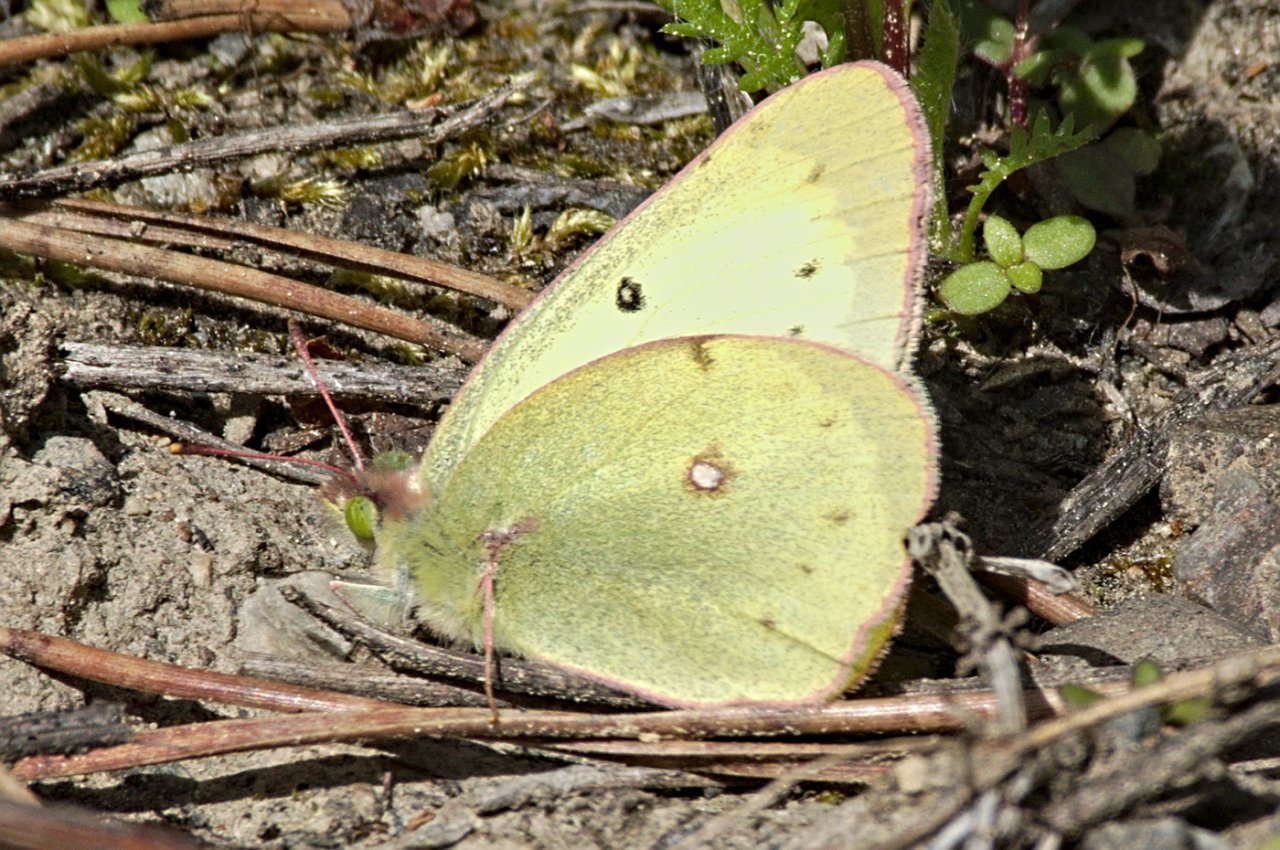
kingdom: Animalia
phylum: Arthropoda
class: Insecta
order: Lepidoptera
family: Pieridae
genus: Colias
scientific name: Colias philodice
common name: Clouded Sulphur
